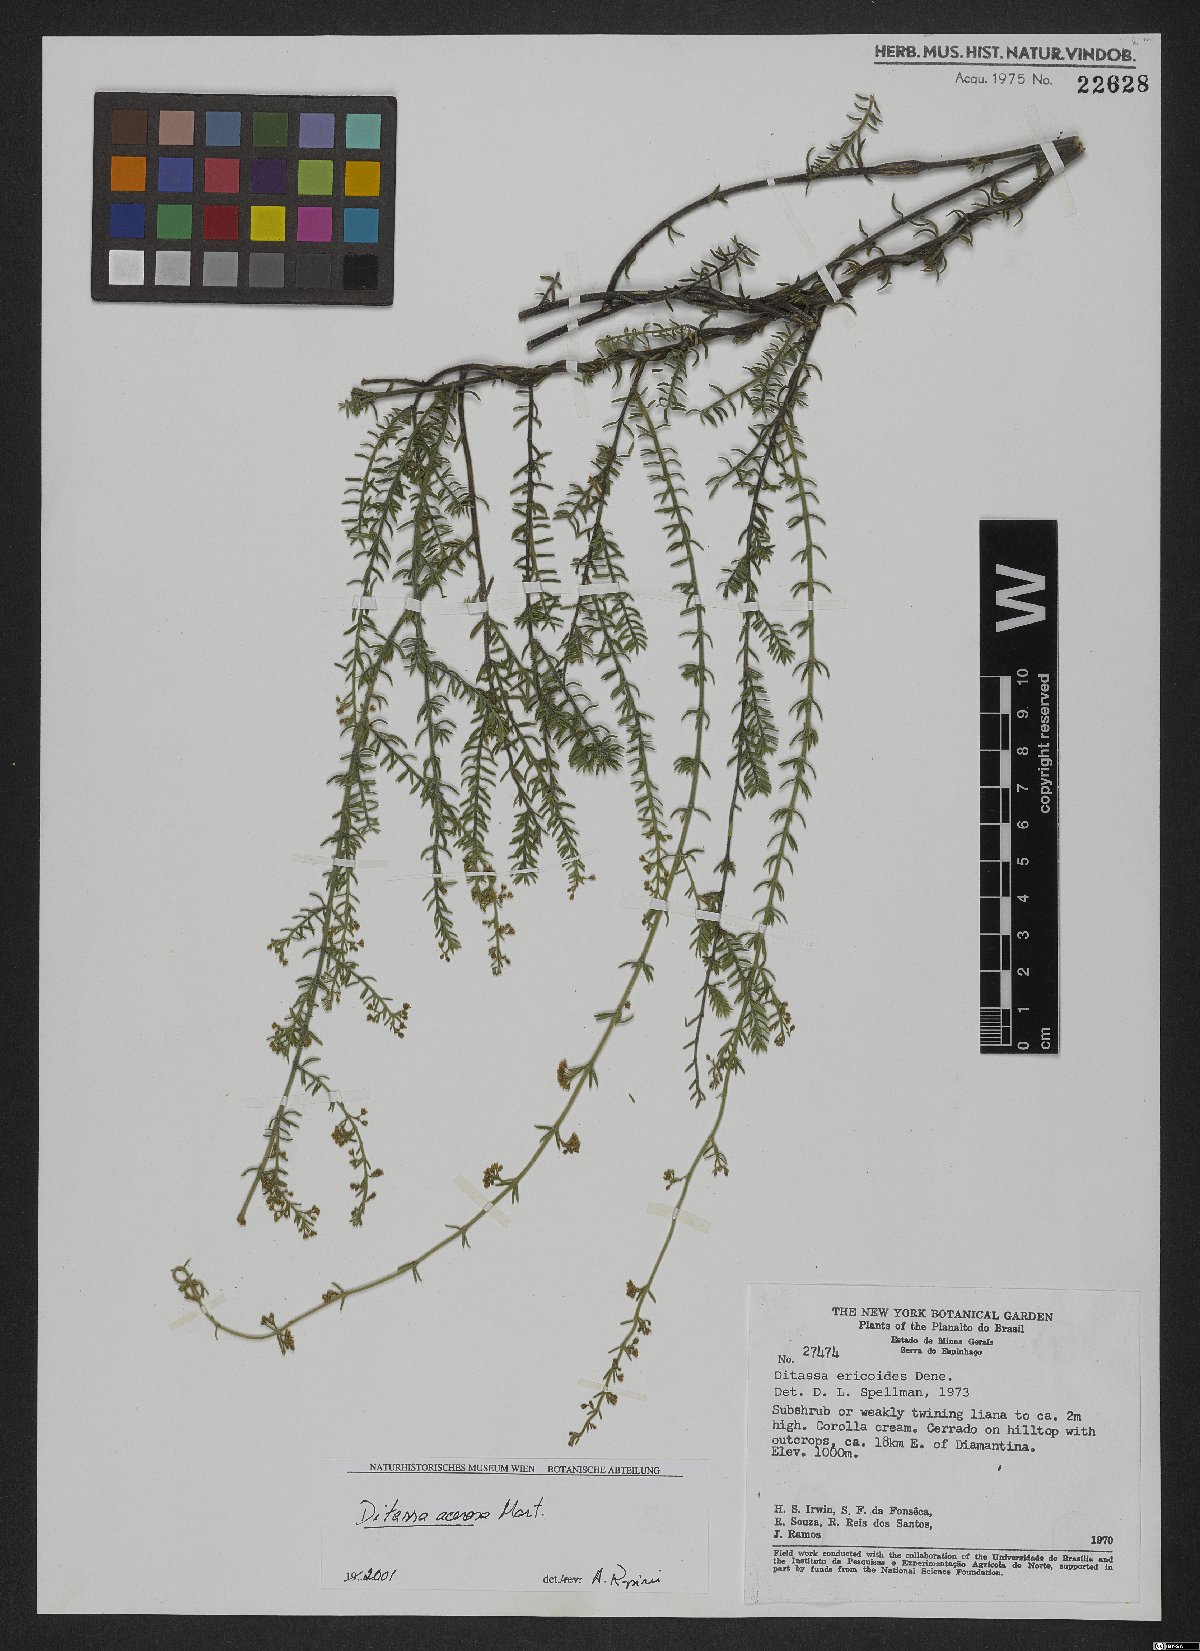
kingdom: Plantae
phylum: Tracheophyta
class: Magnoliopsida
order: Gentianales
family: Apocynaceae
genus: Minaria
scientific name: Minaria acerosa
